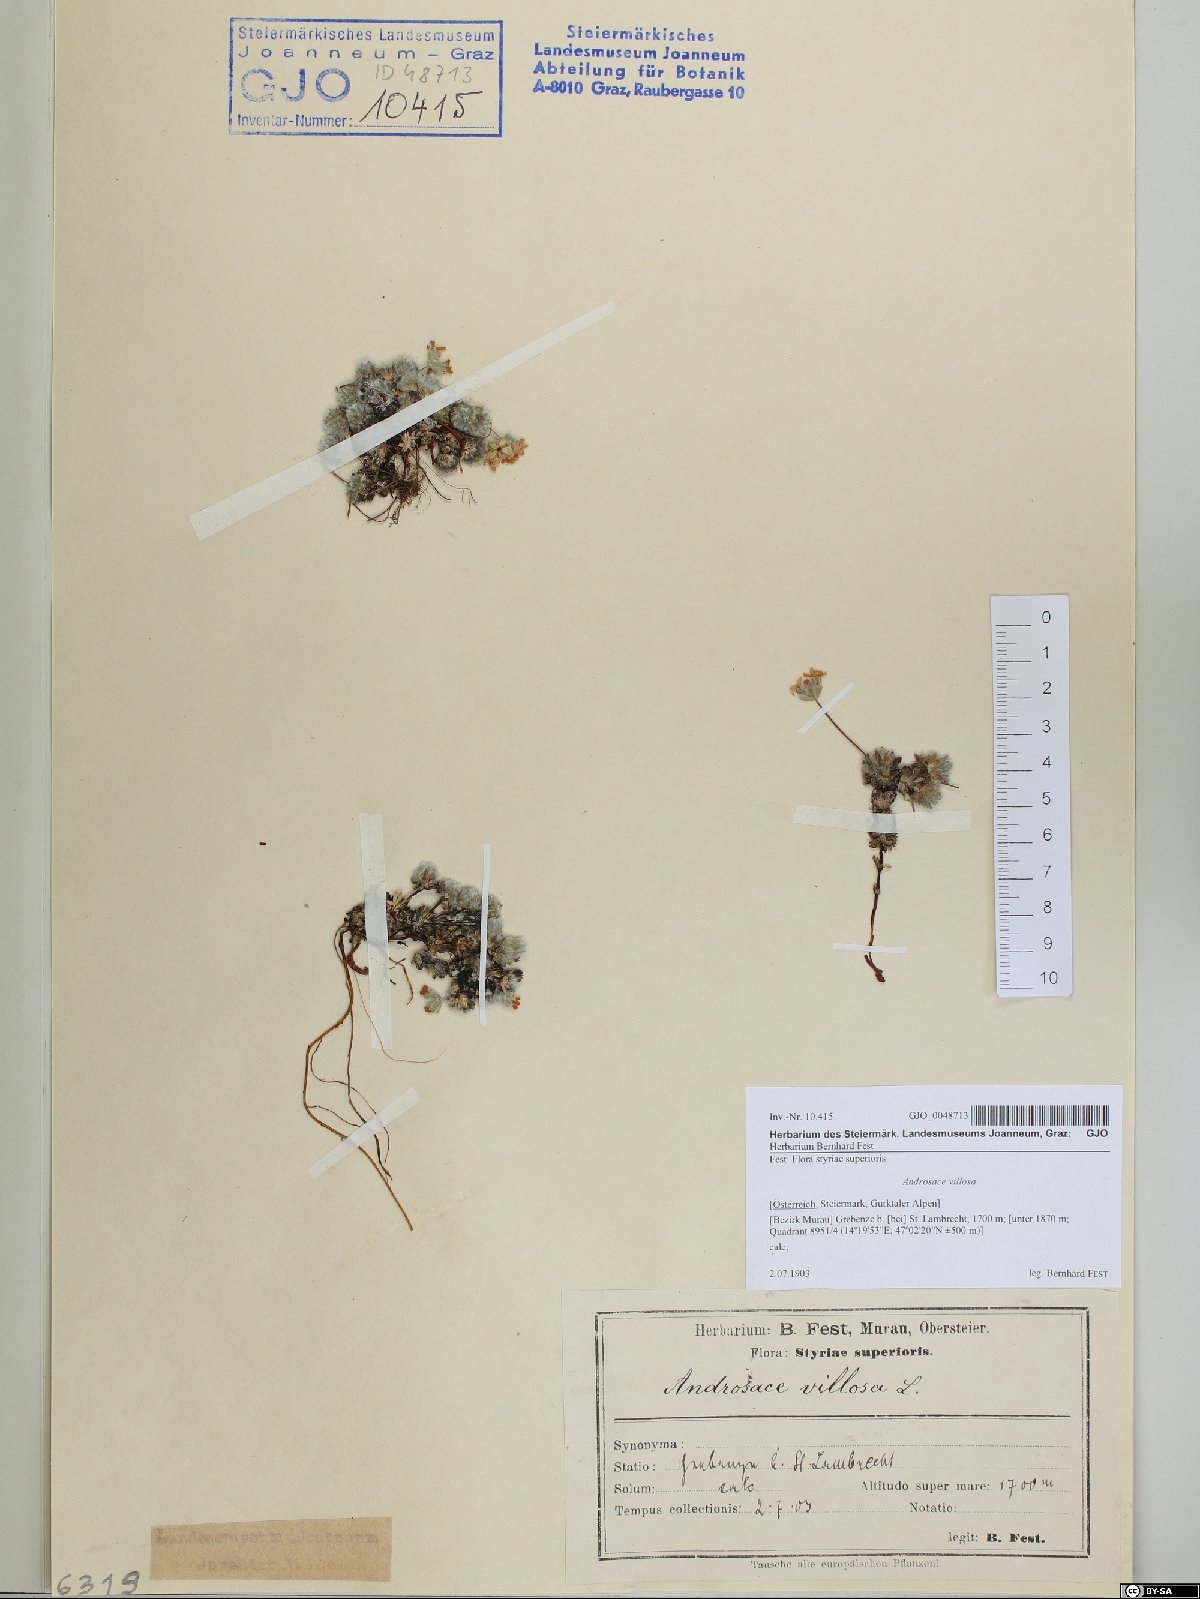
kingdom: Plantae
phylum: Tracheophyta
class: Magnoliopsida
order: Ericales
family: Primulaceae
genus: Androsace
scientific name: Androsace villosa
